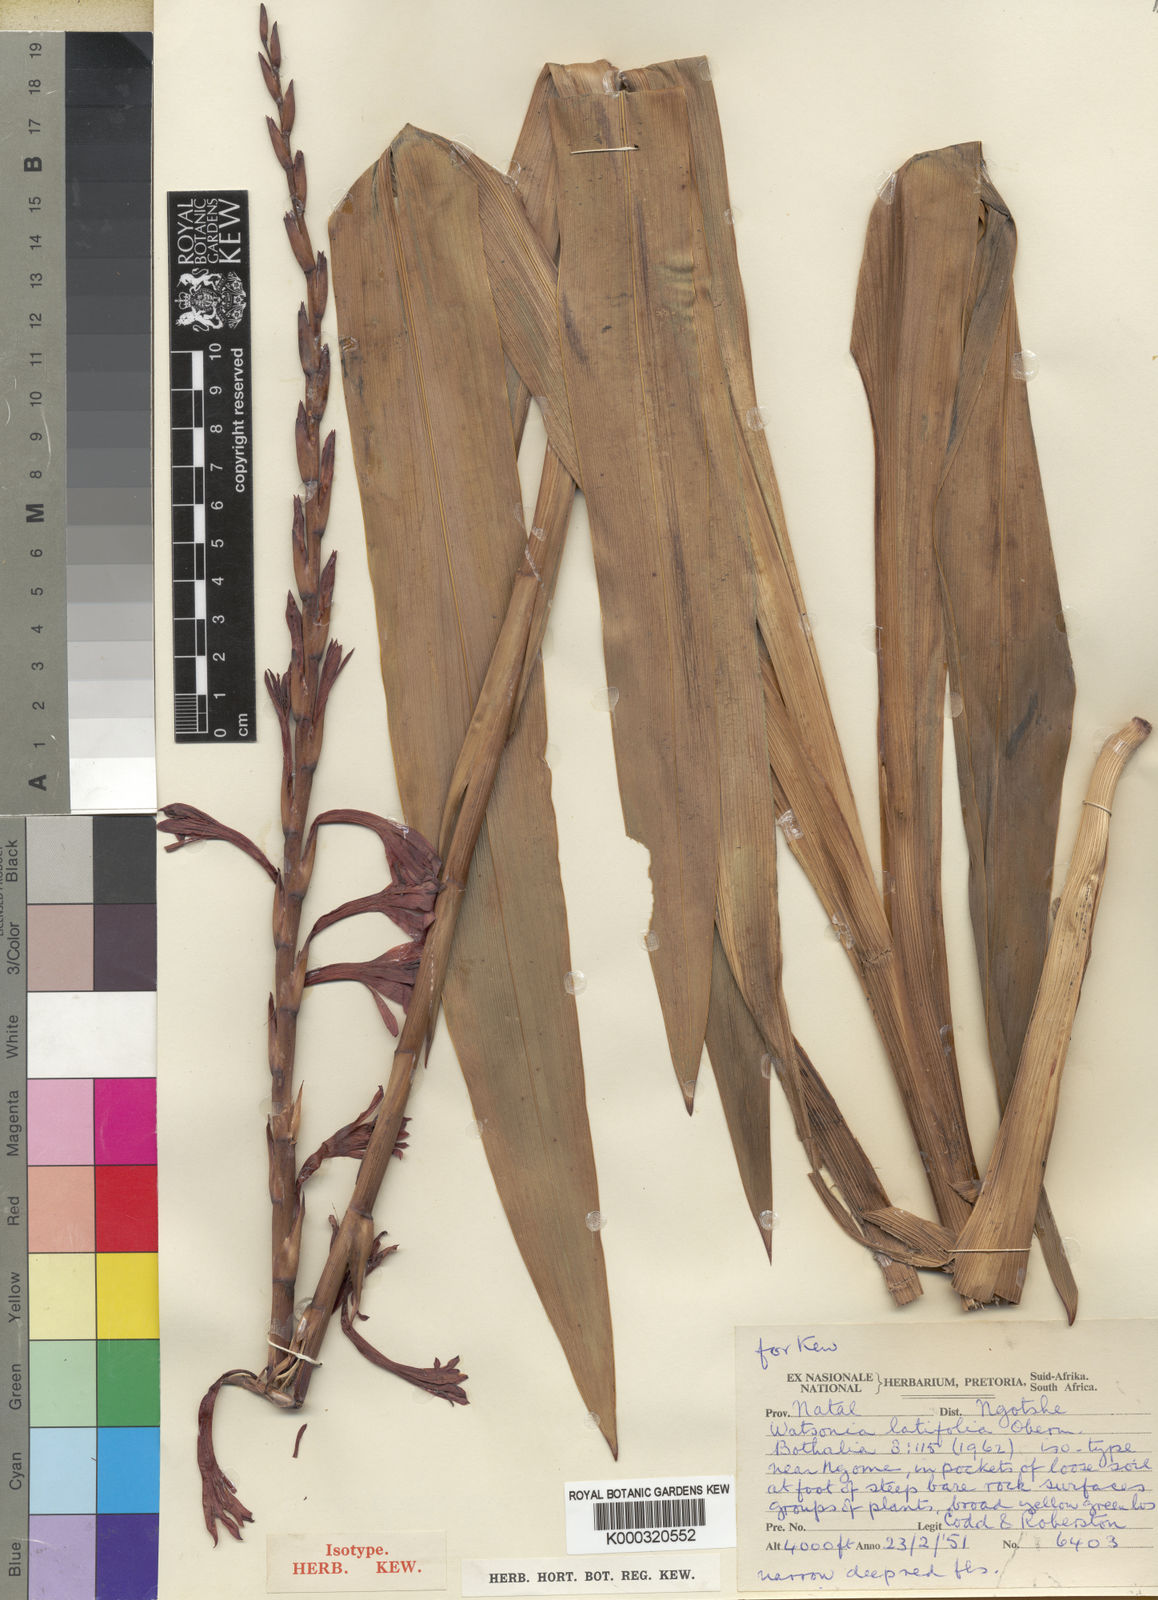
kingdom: Plantae
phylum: Tracheophyta
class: Liliopsida
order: Asparagales
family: Iridaceae
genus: Watsonia
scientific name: Watsonia latifolia
